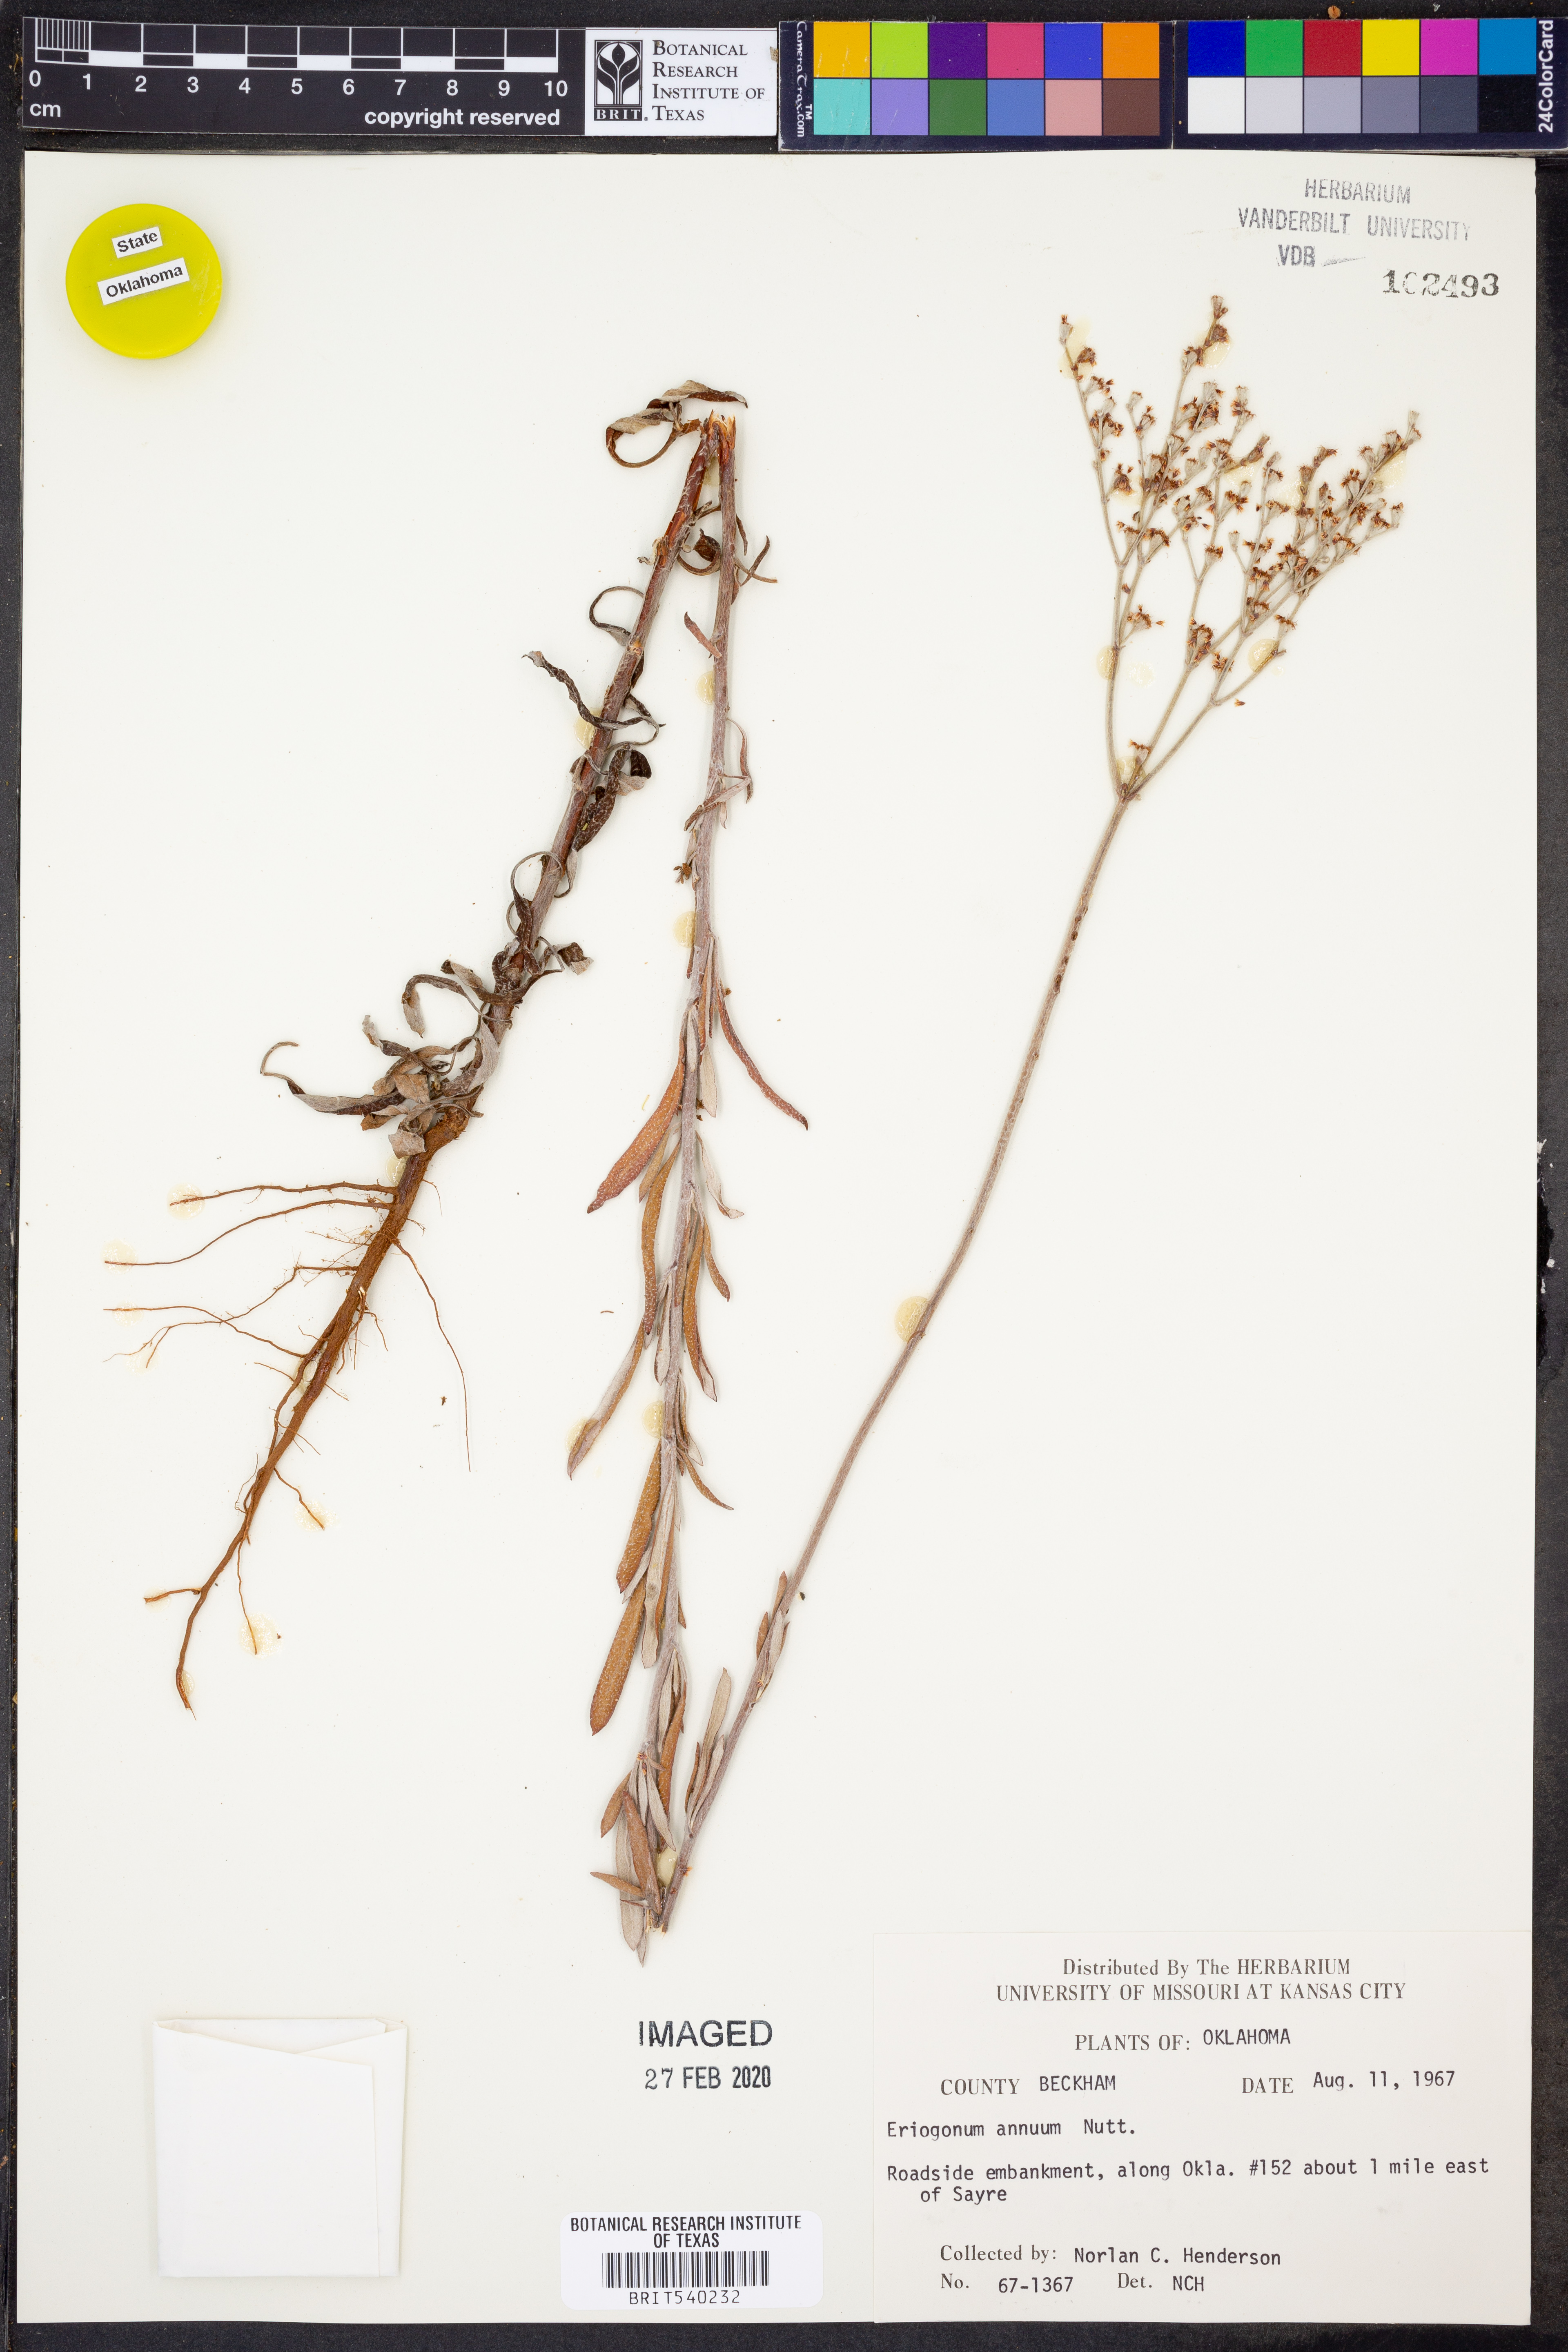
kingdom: Plantae
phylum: Tracheophyta
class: Magnoliopsida
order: Caryophyllales
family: Polygonaceae
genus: Eriogonum
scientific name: Eriogonum annuum
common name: Annual wild buckwheat
